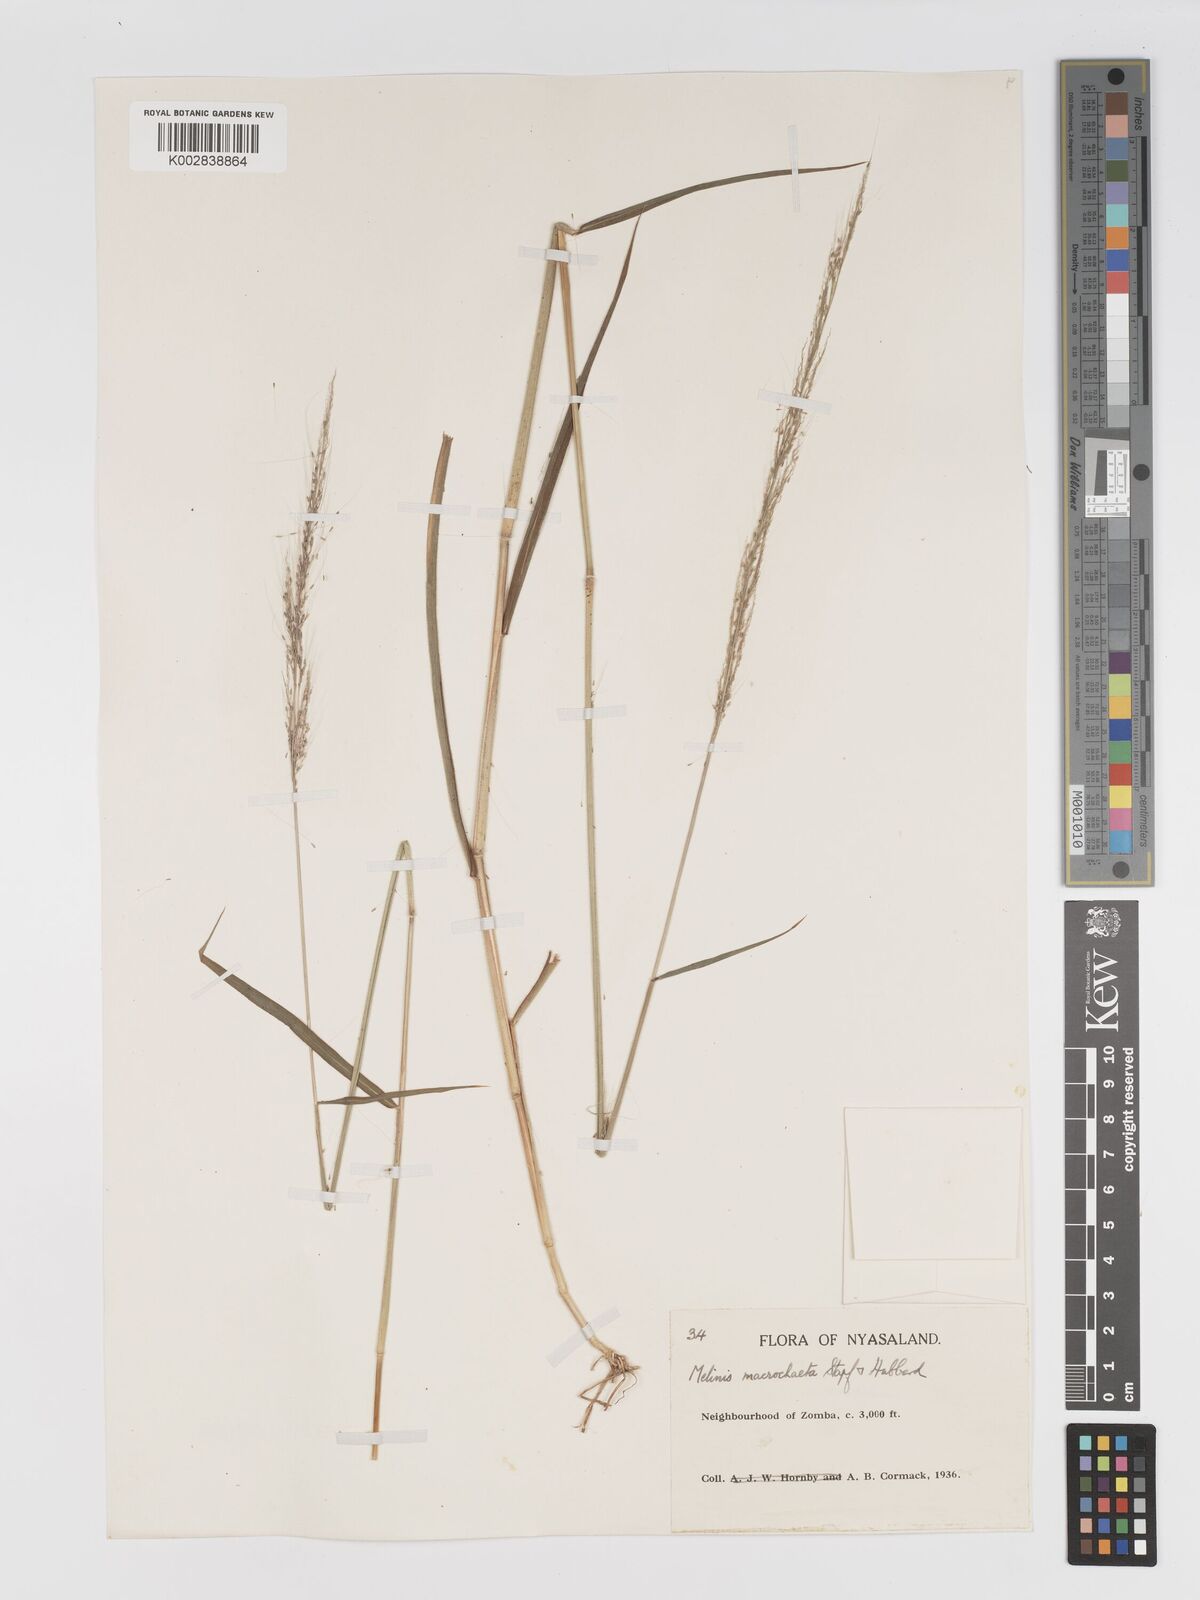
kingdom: Plantae
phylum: Tracheophyta
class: Liliopsida
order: Poales
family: Poaceae
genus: Melinis
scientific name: Melinis macrochaeta
